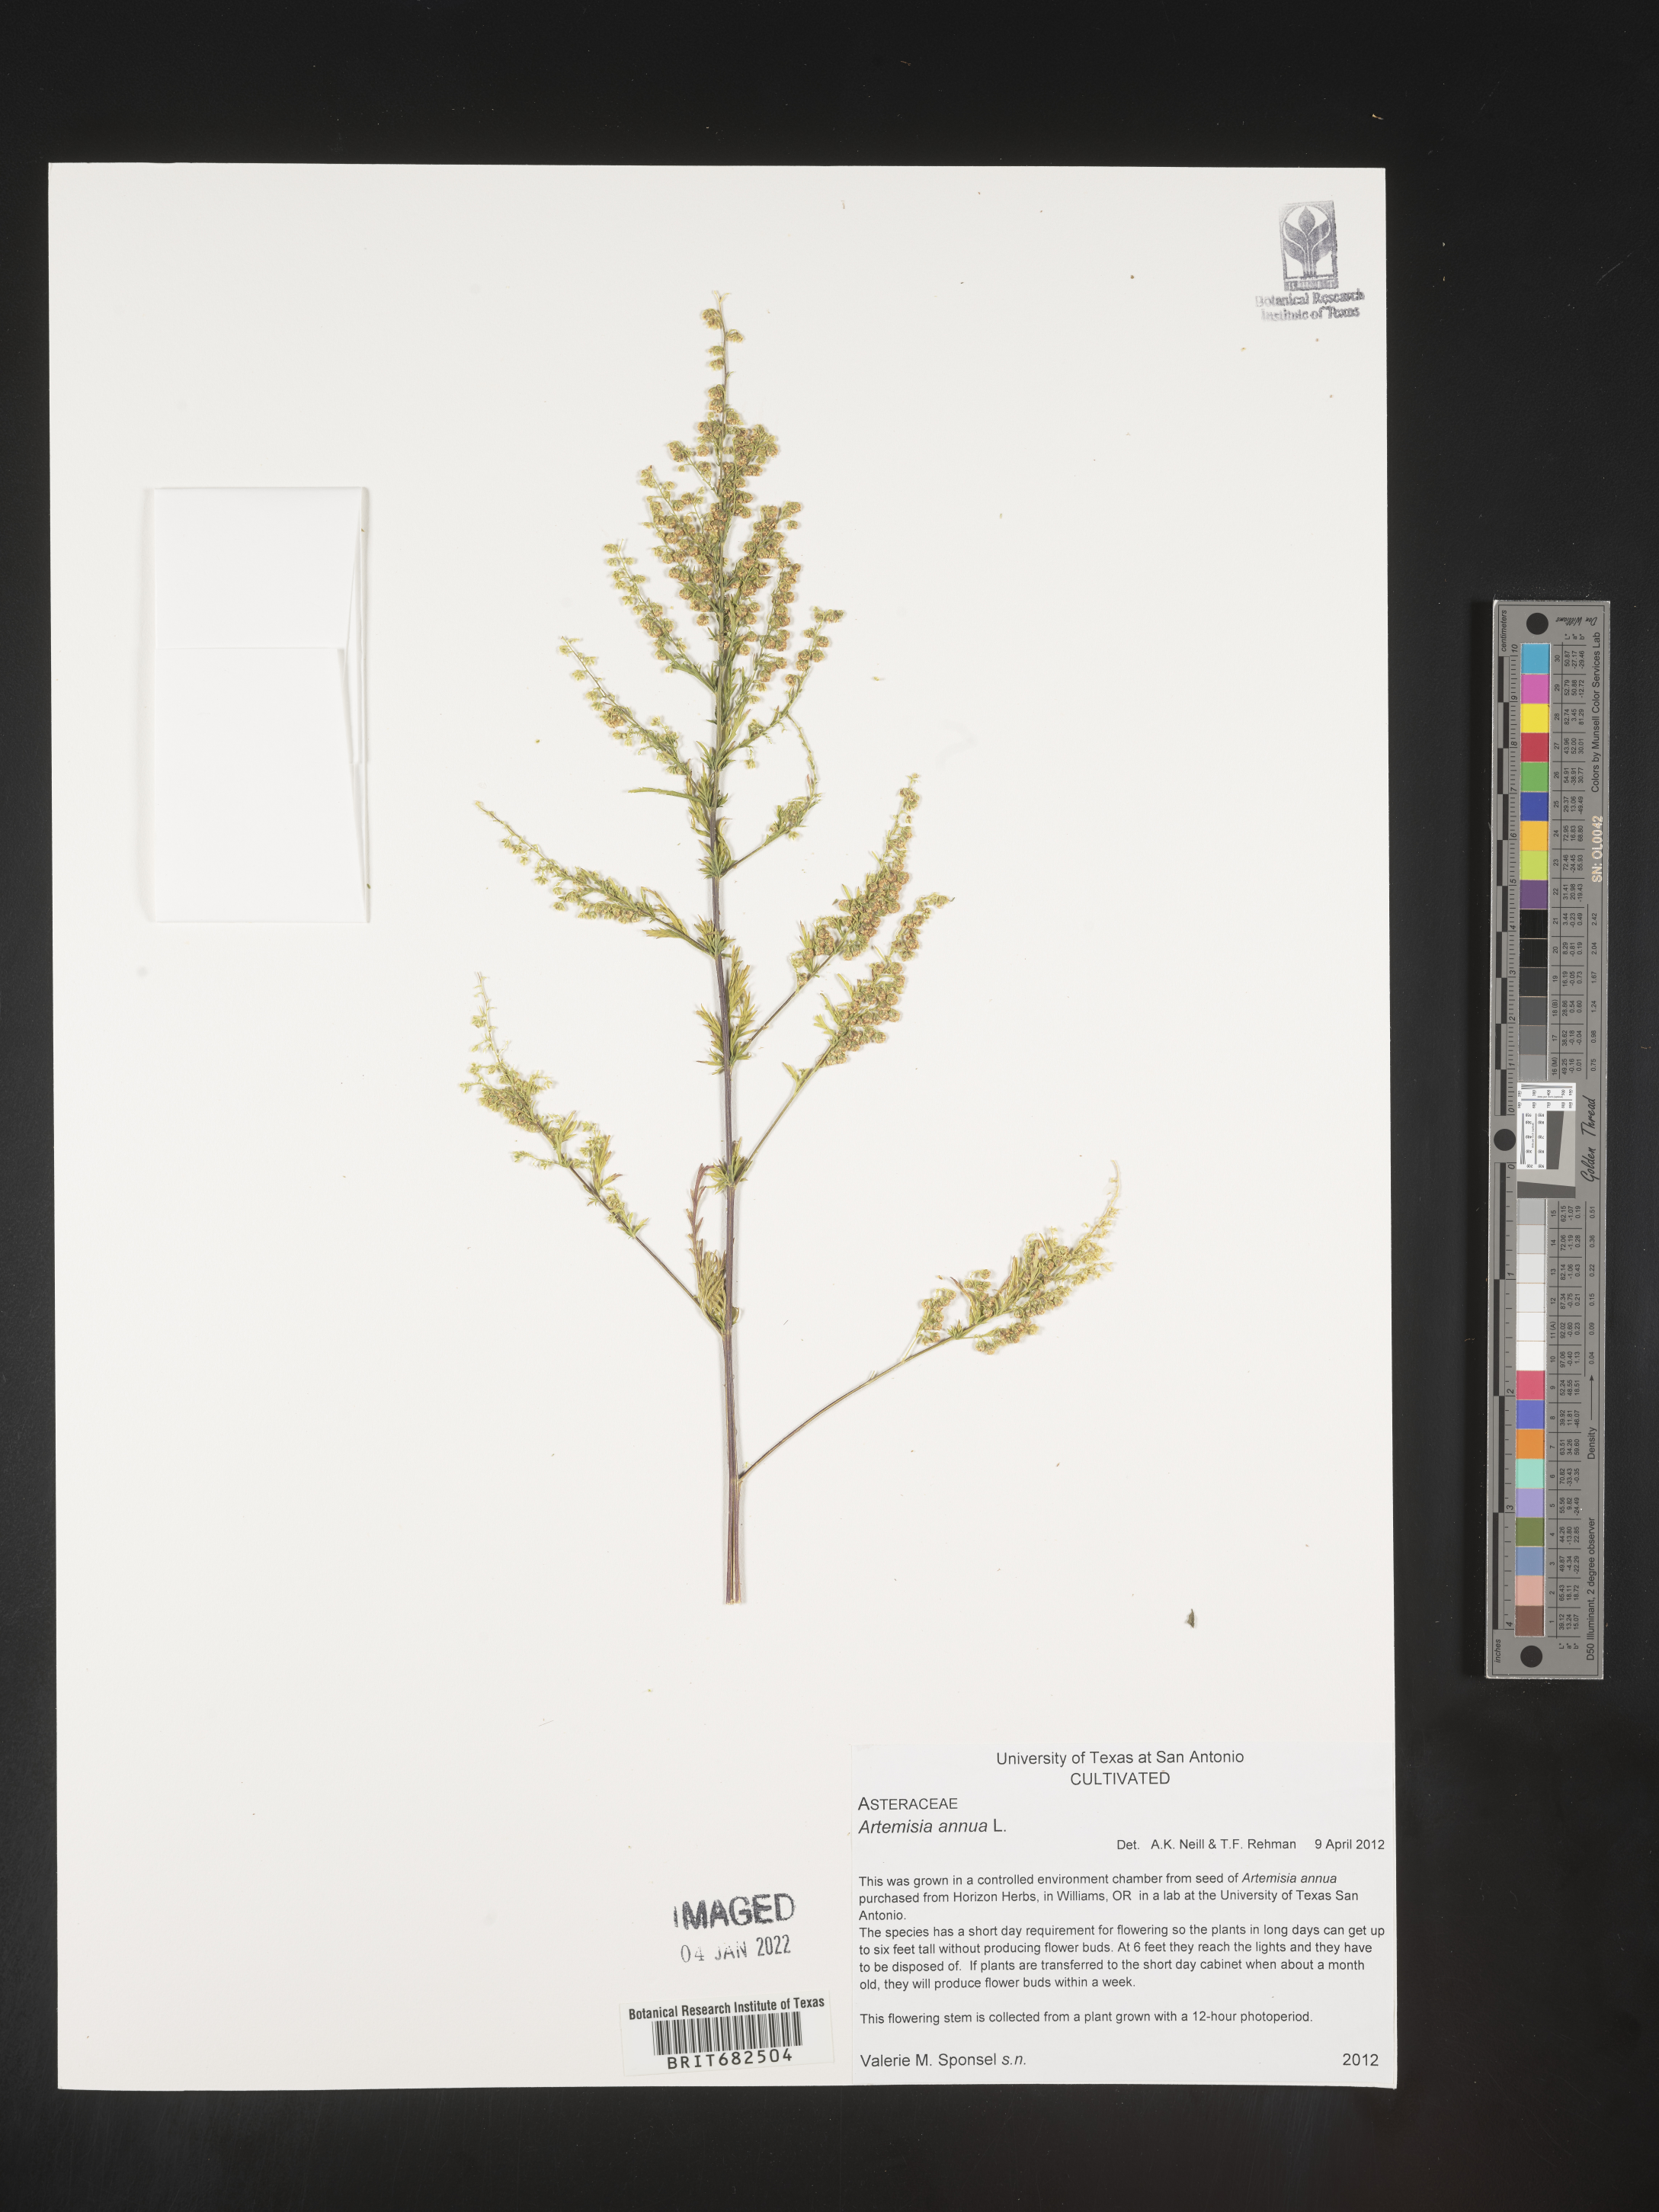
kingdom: Plantae
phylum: Tracheophyta
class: Magnoliopsida
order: Asterales
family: Asteraceae
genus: Artemisia
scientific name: Artemisia
